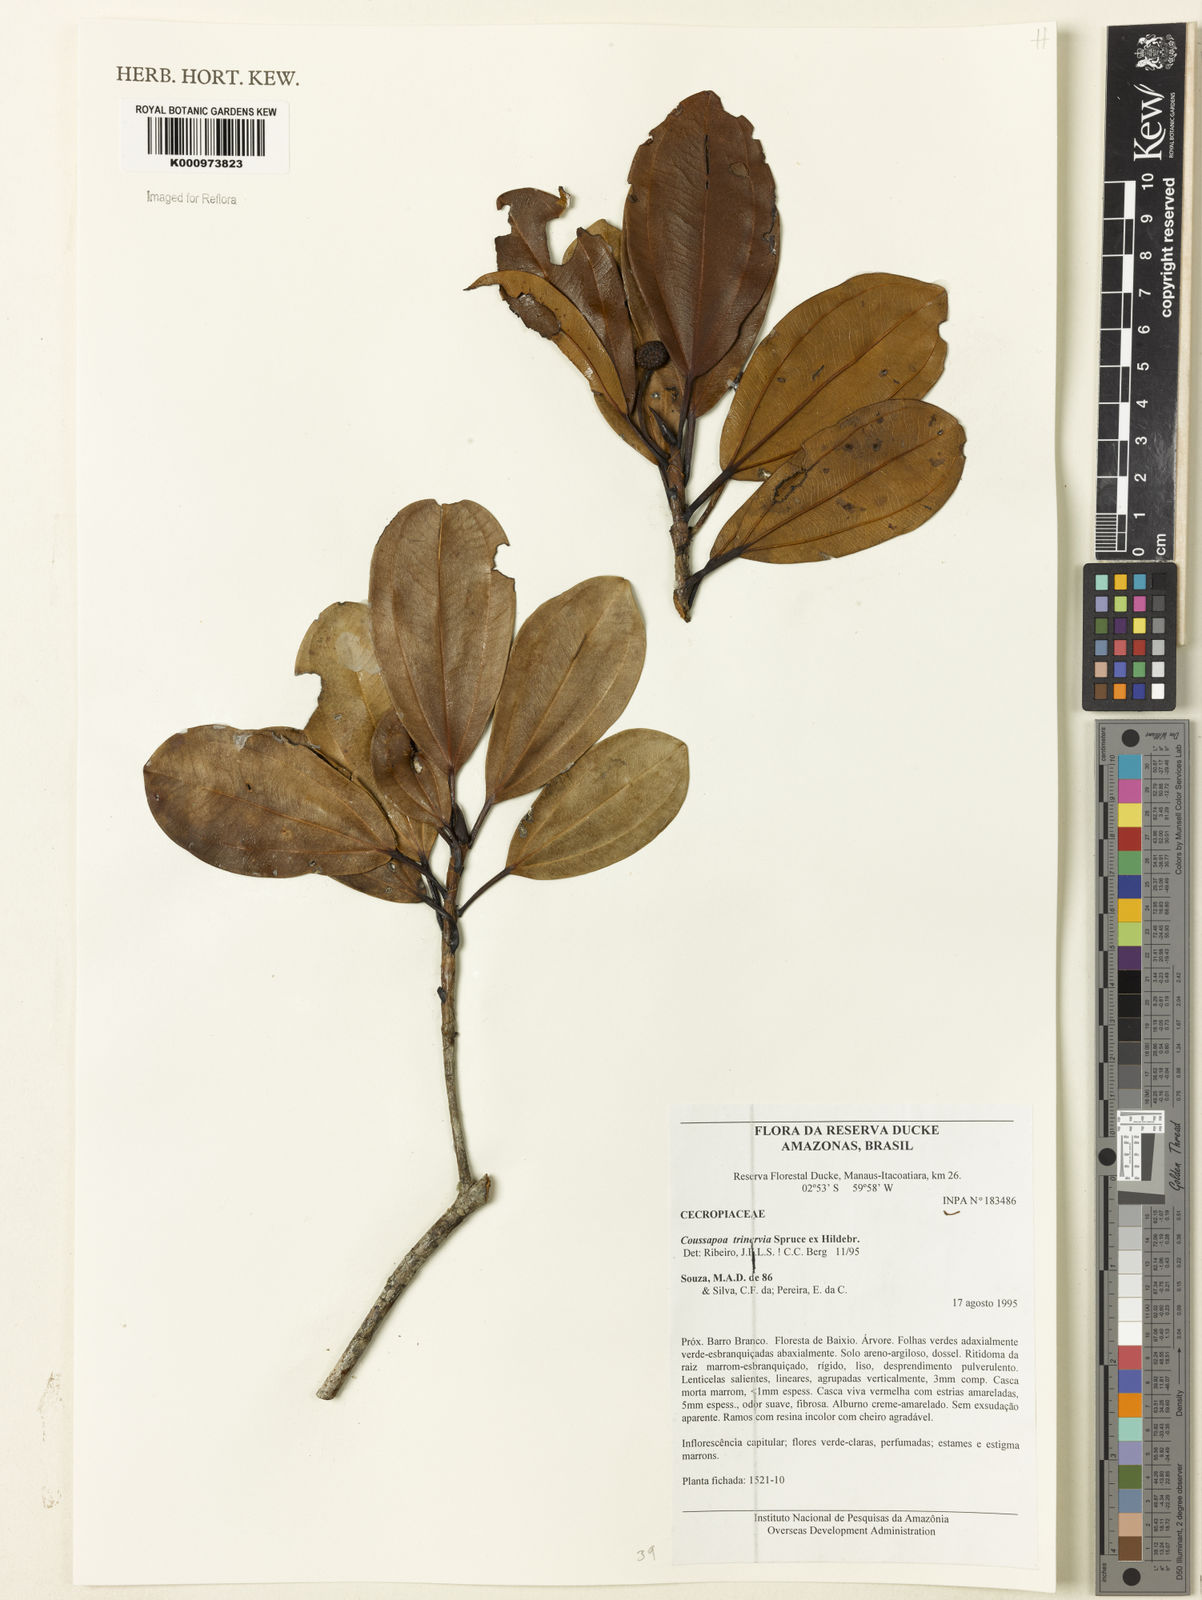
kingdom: Plantae
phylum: Tracheophyta
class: Magnoliopsida
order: Rosales
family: Urticaceae
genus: Coussapoa
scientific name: Coussapoa trinervia
